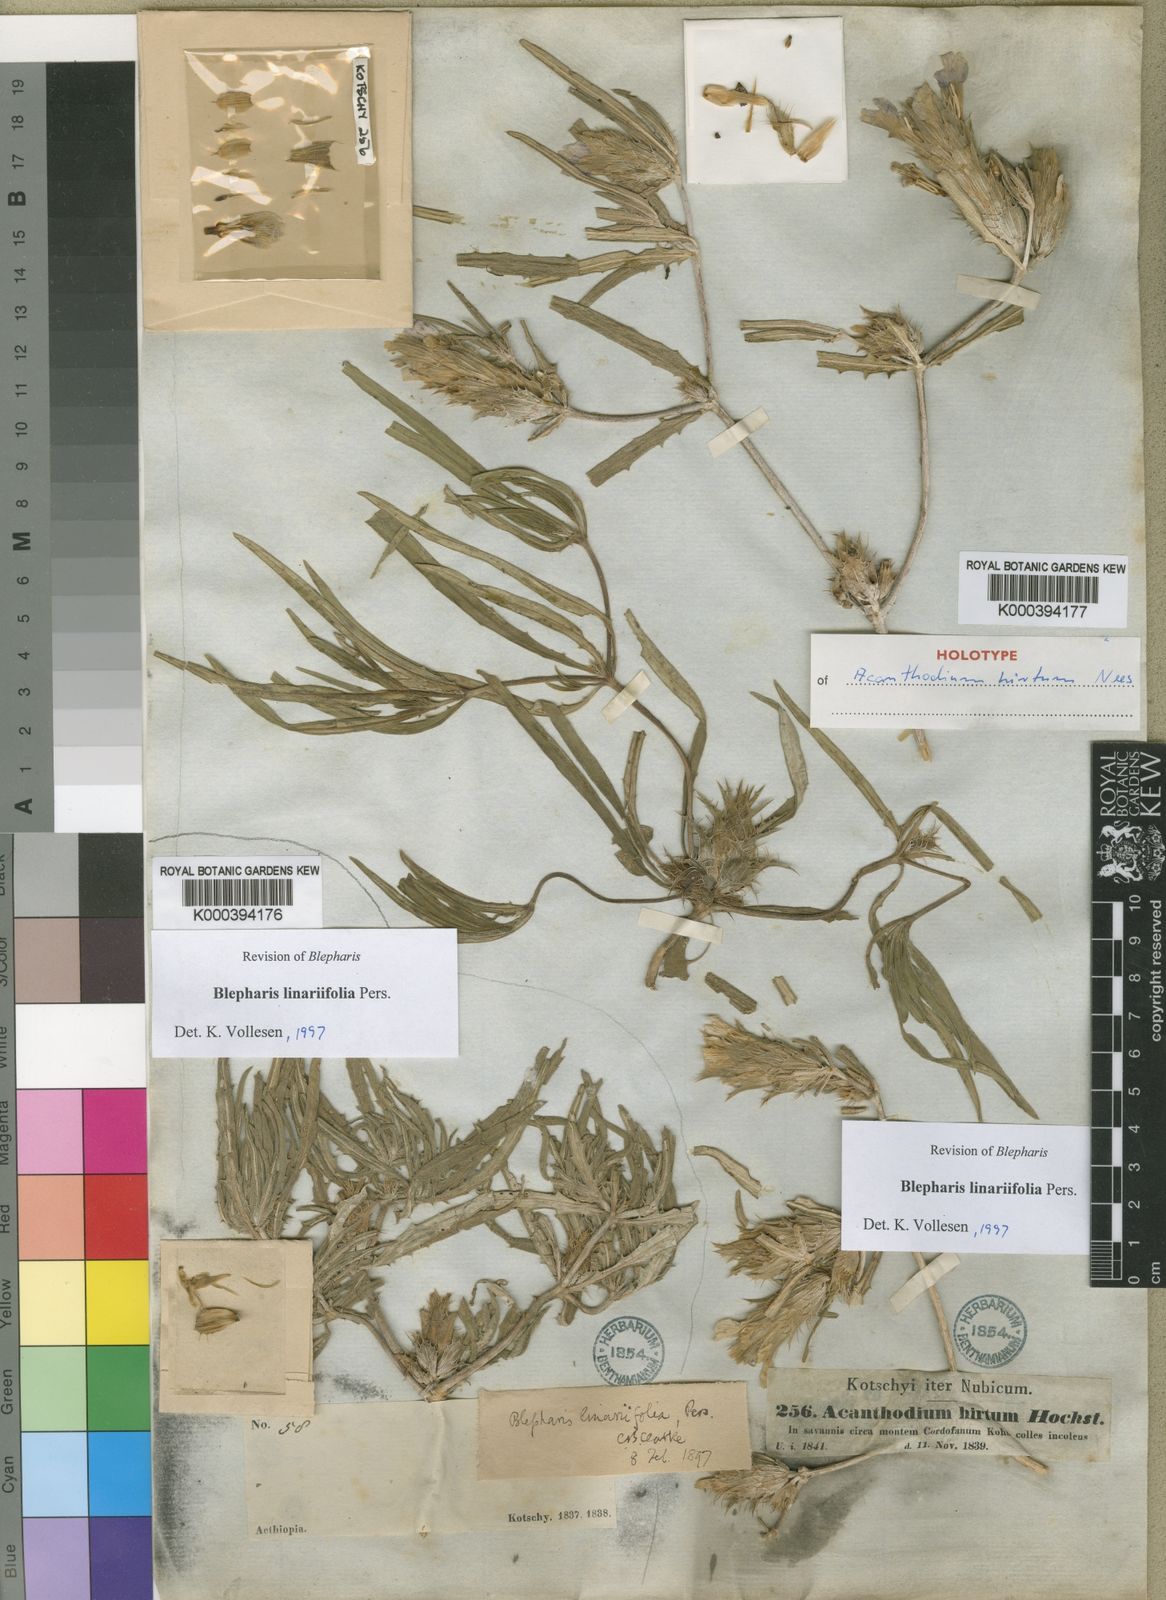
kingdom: Plantae
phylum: Tracheophyta
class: Magnoliopsida
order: Lamiales
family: Acanthaceae
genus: Blepharis
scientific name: Blepharis
